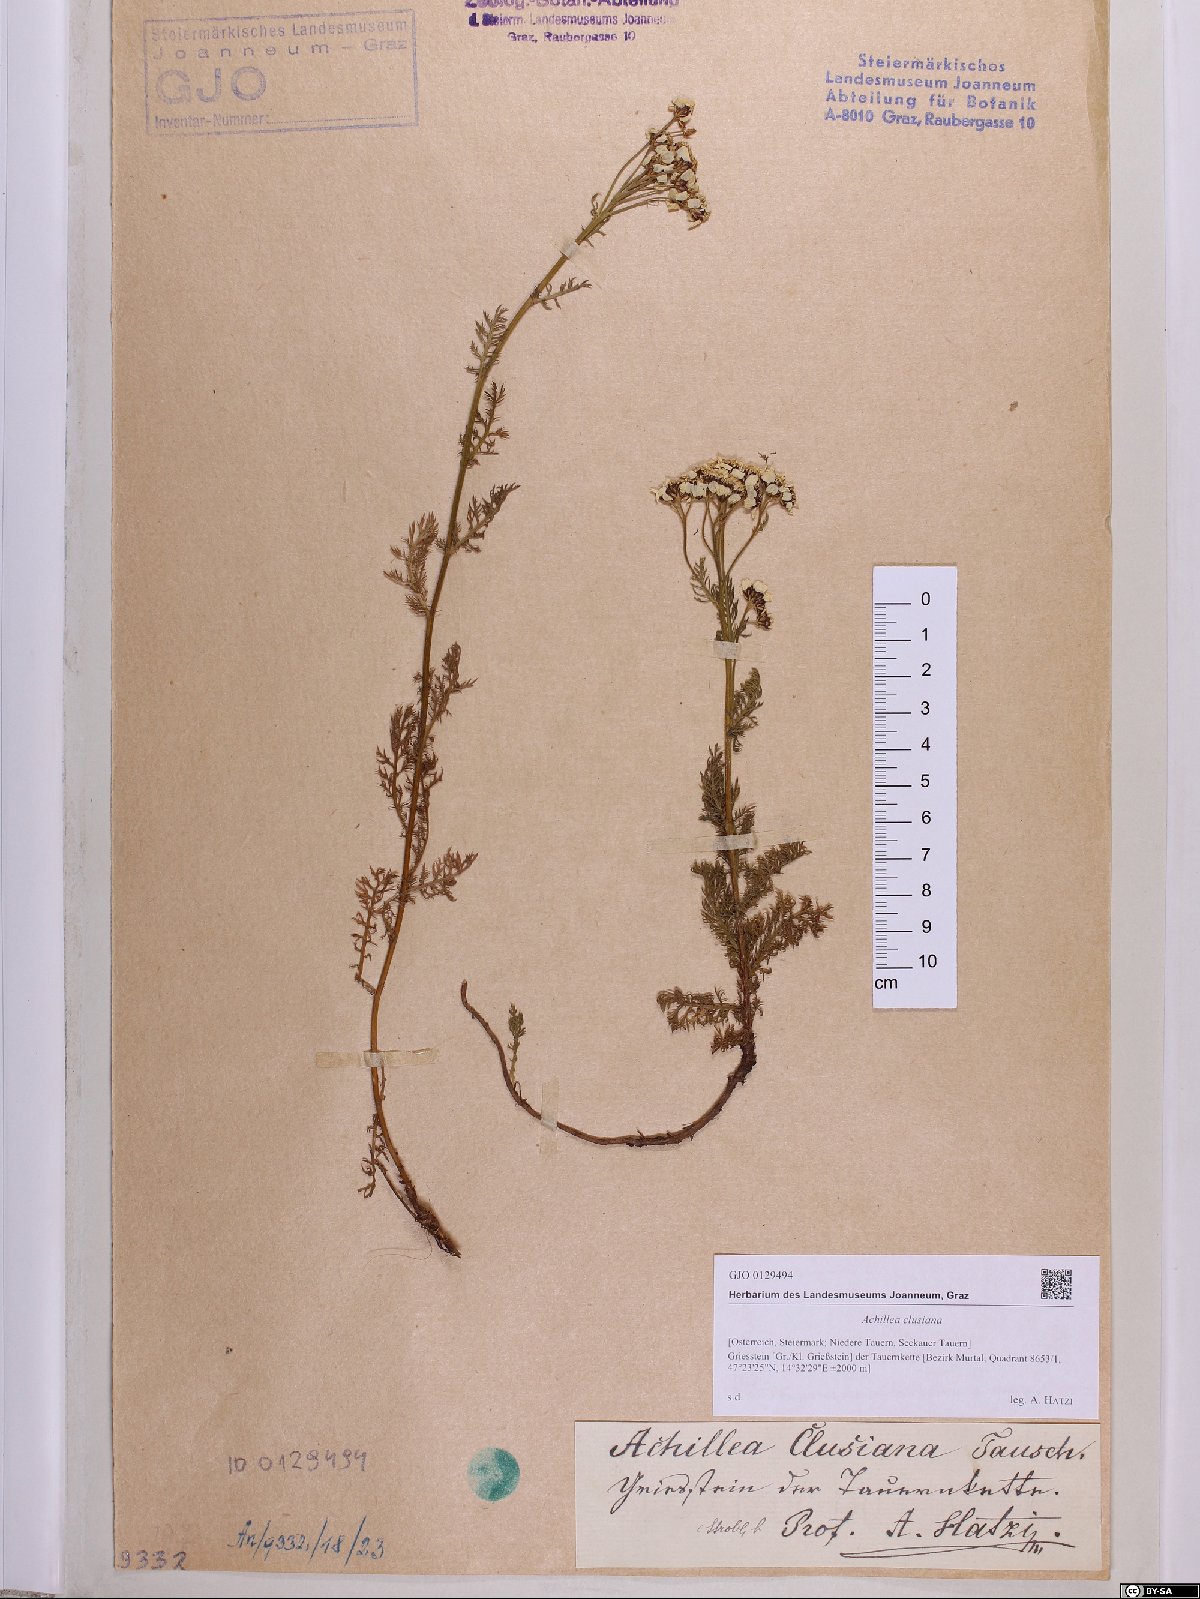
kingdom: Plantae
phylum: Tracheophyta
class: Magnoliopsida
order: Asterales
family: Asteraceae
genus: Achillea
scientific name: Achillea clusiana
